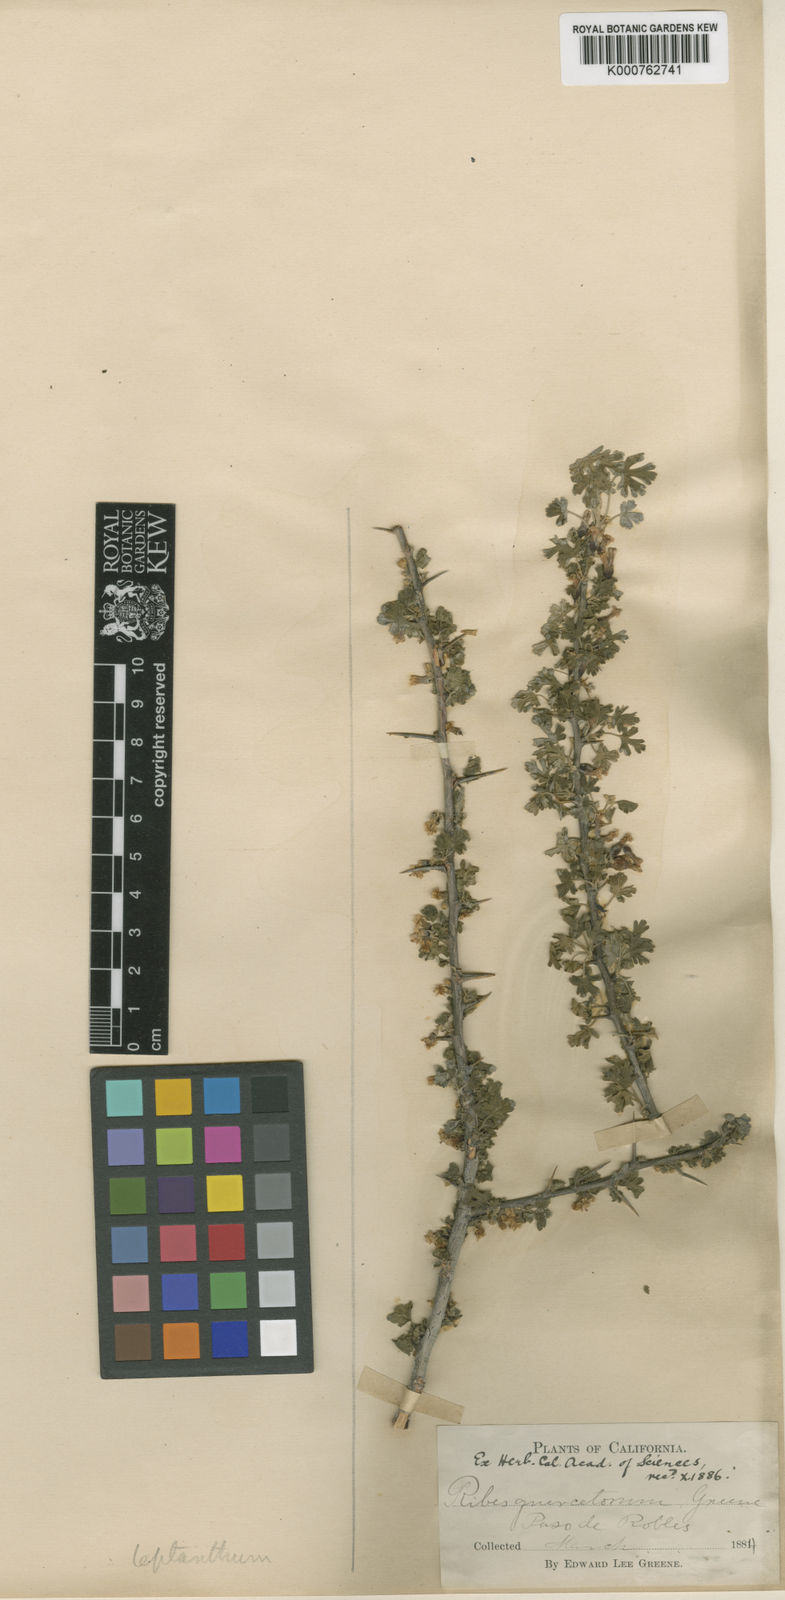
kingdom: Plantae
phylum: Tracheophyta
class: Magnoliopsida
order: Saxifragales
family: Grossulariaceae
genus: Ribes
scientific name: Ribes quercetorum
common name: Oak gooseberry
